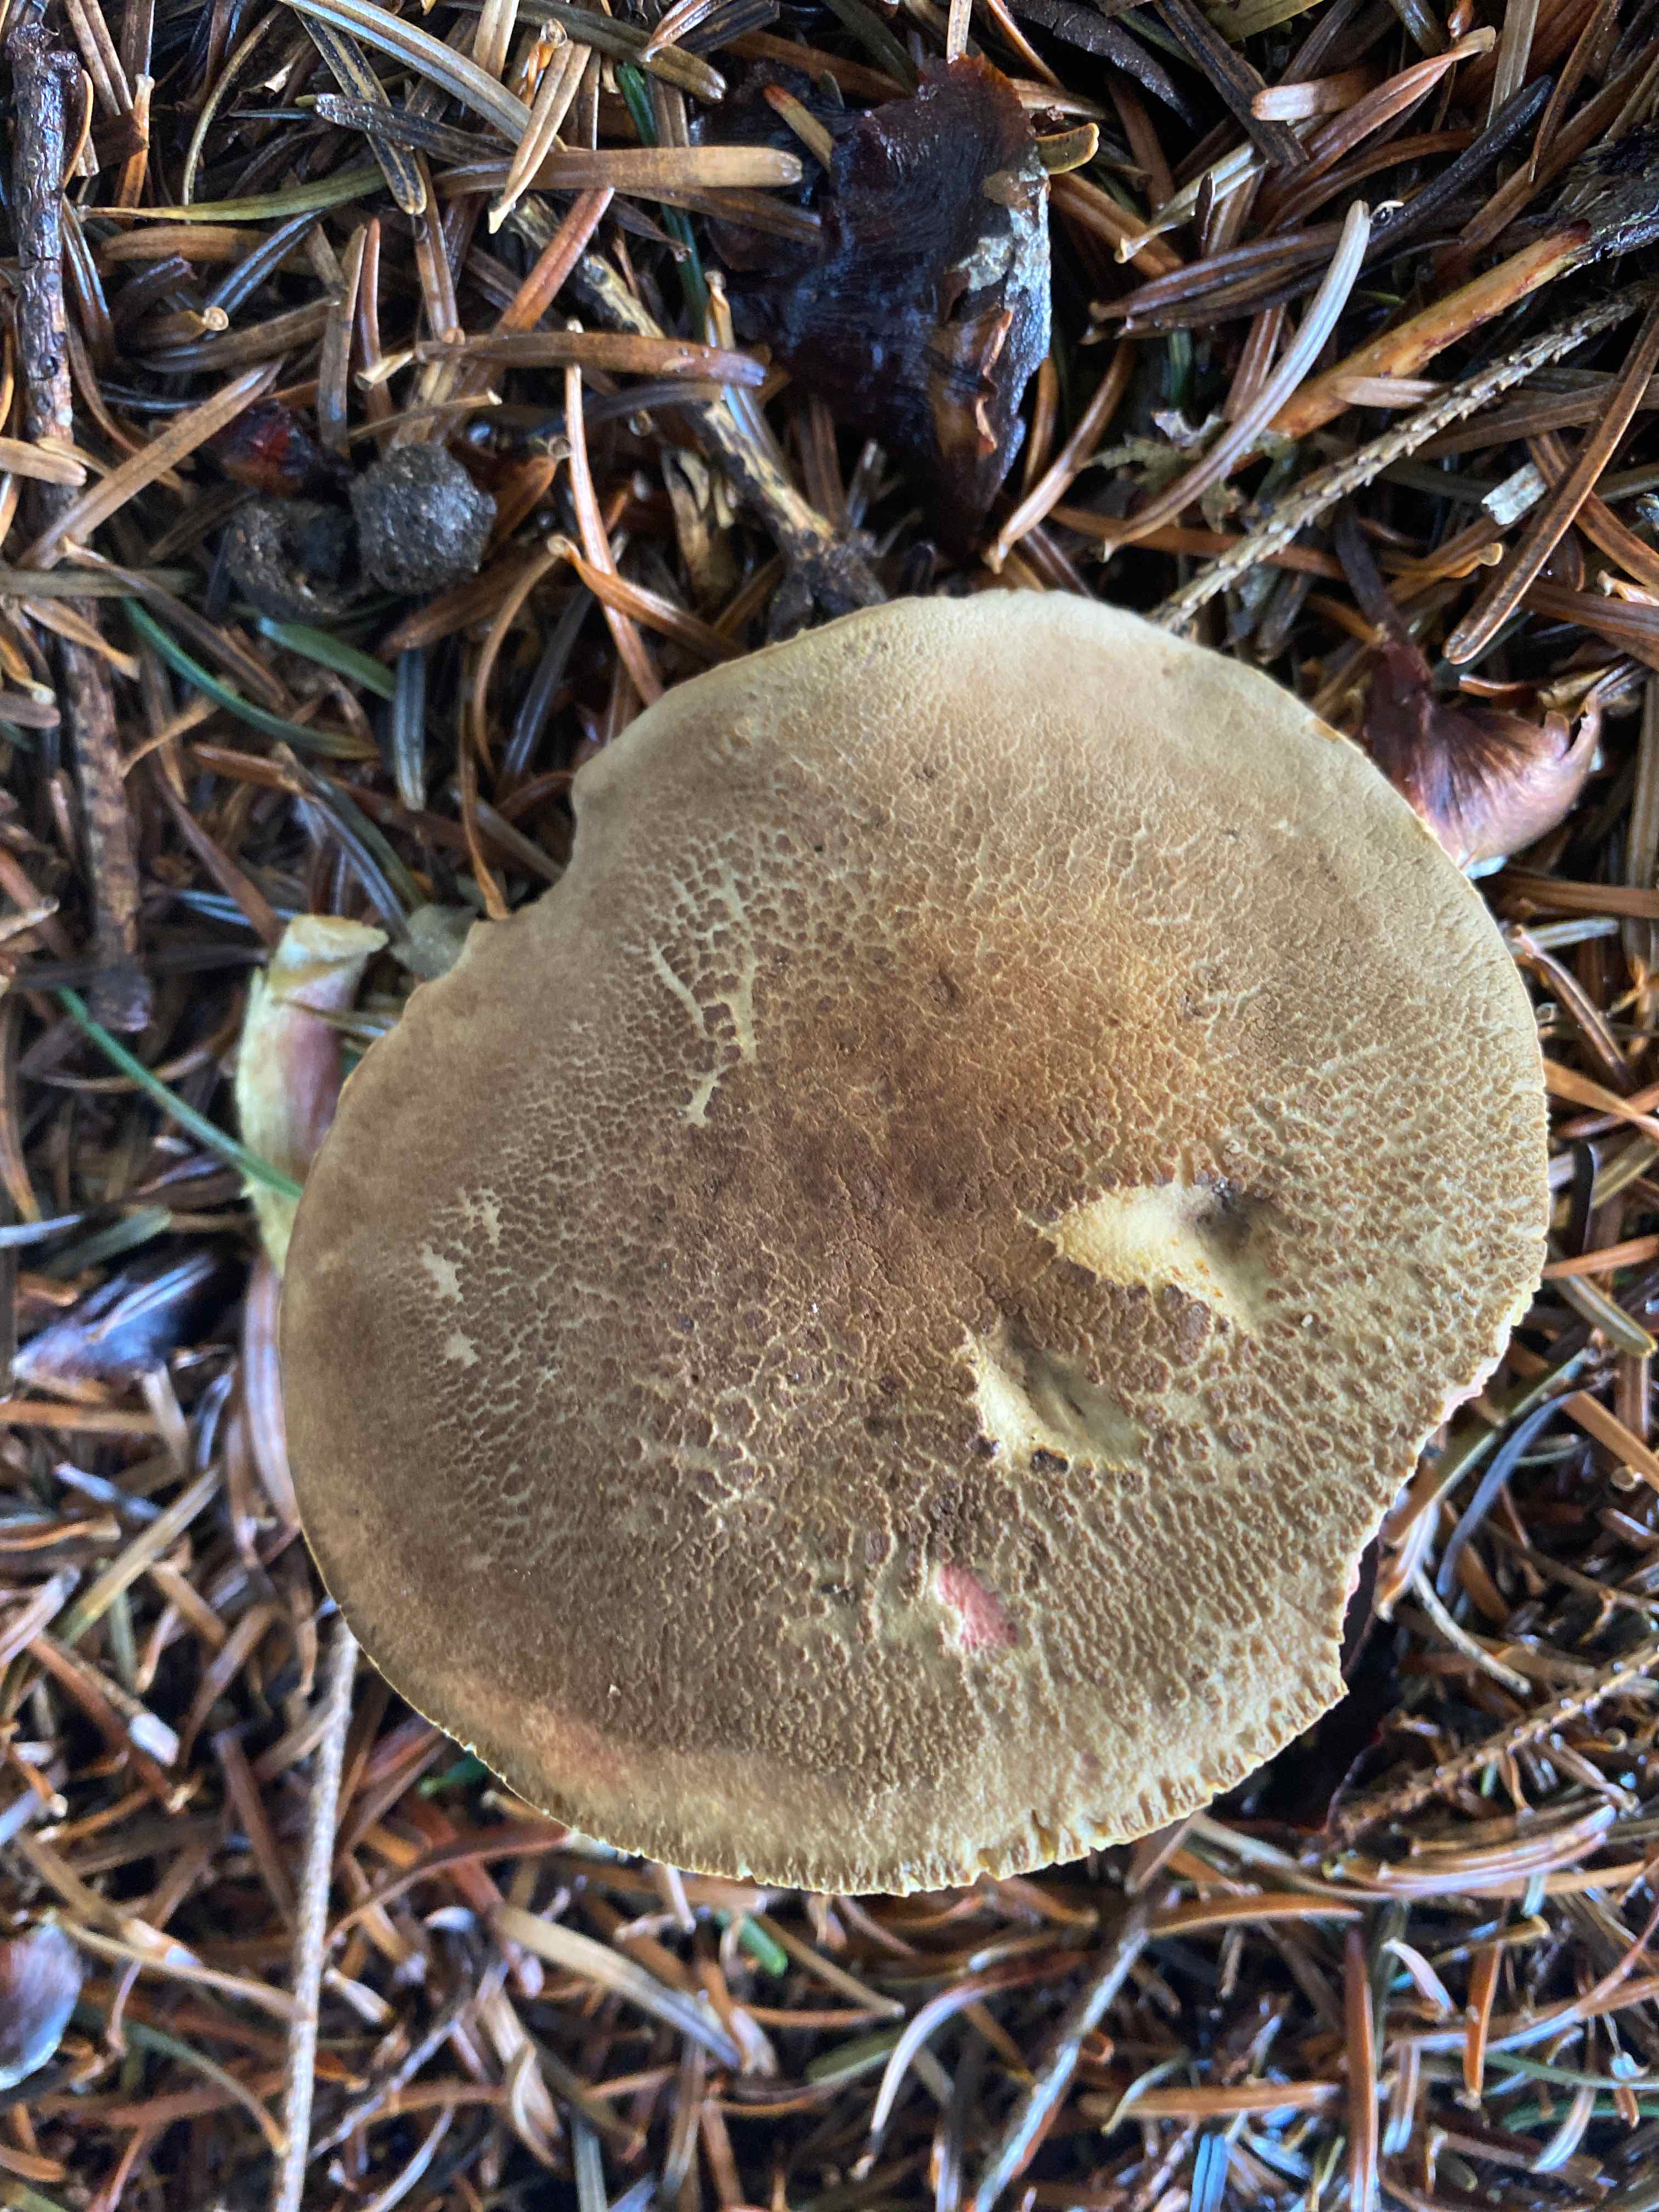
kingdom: Fungi
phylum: Basidiomycota
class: Agaricomycetes
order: Boletales
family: Boletaceae
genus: Xerocomellus
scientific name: Xerocomellus
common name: dværgrørhat
